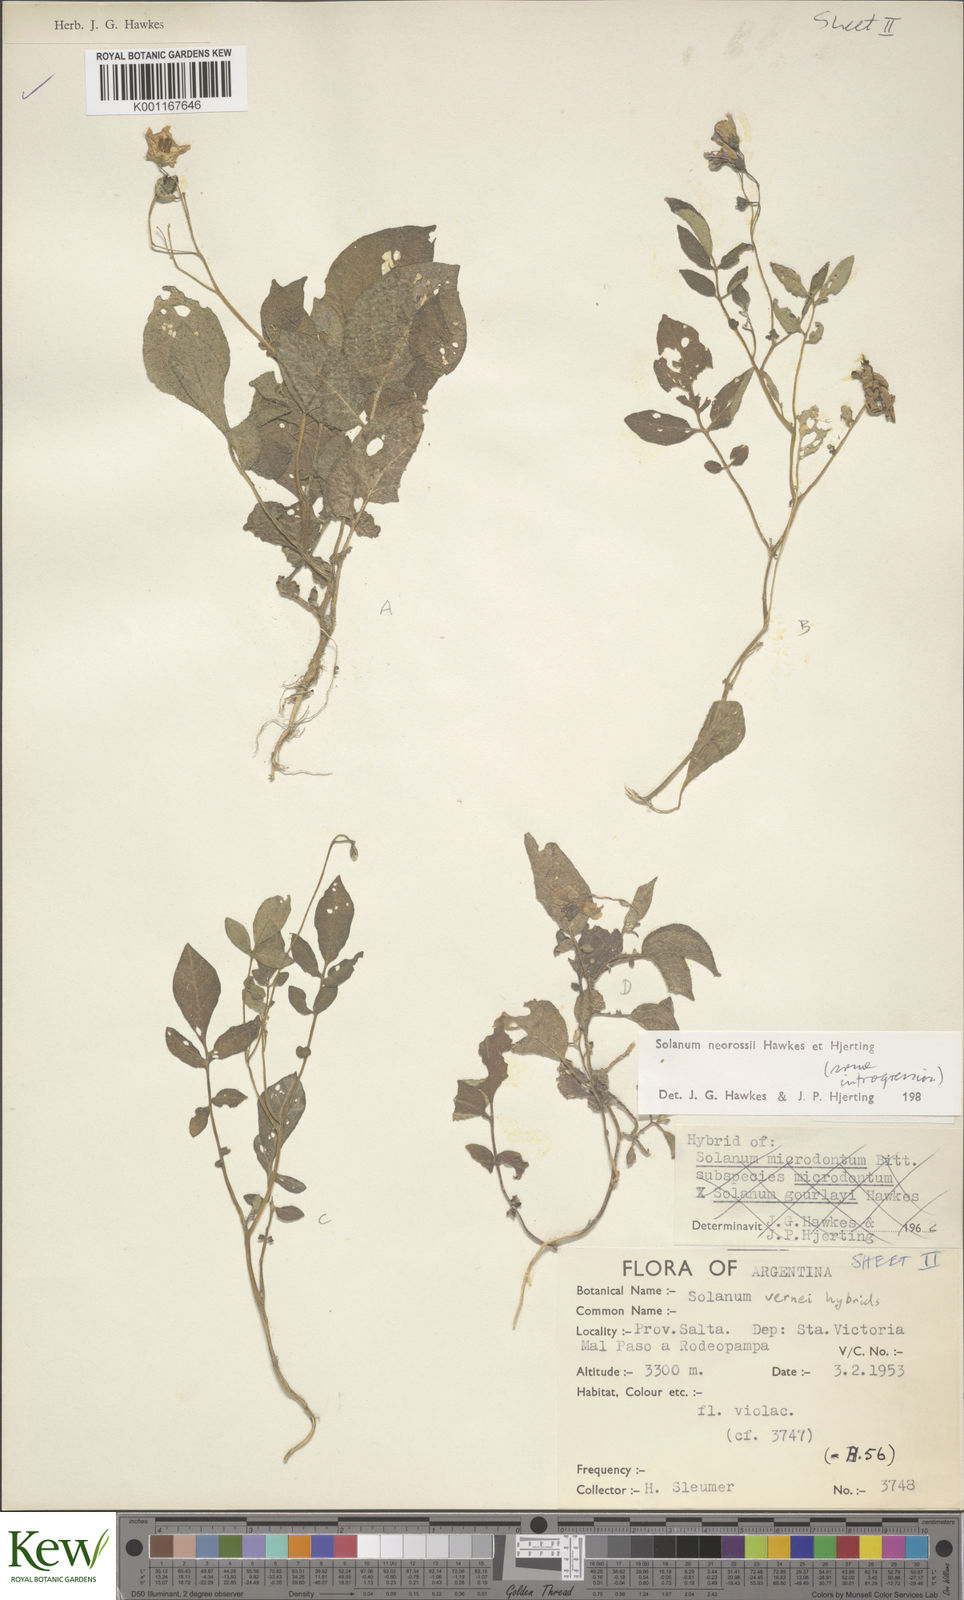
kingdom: Plantae
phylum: Tracheophyta
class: Magnoliopsida
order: Solanales
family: Solanaceae
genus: Solanum
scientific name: Solanum neorossii
